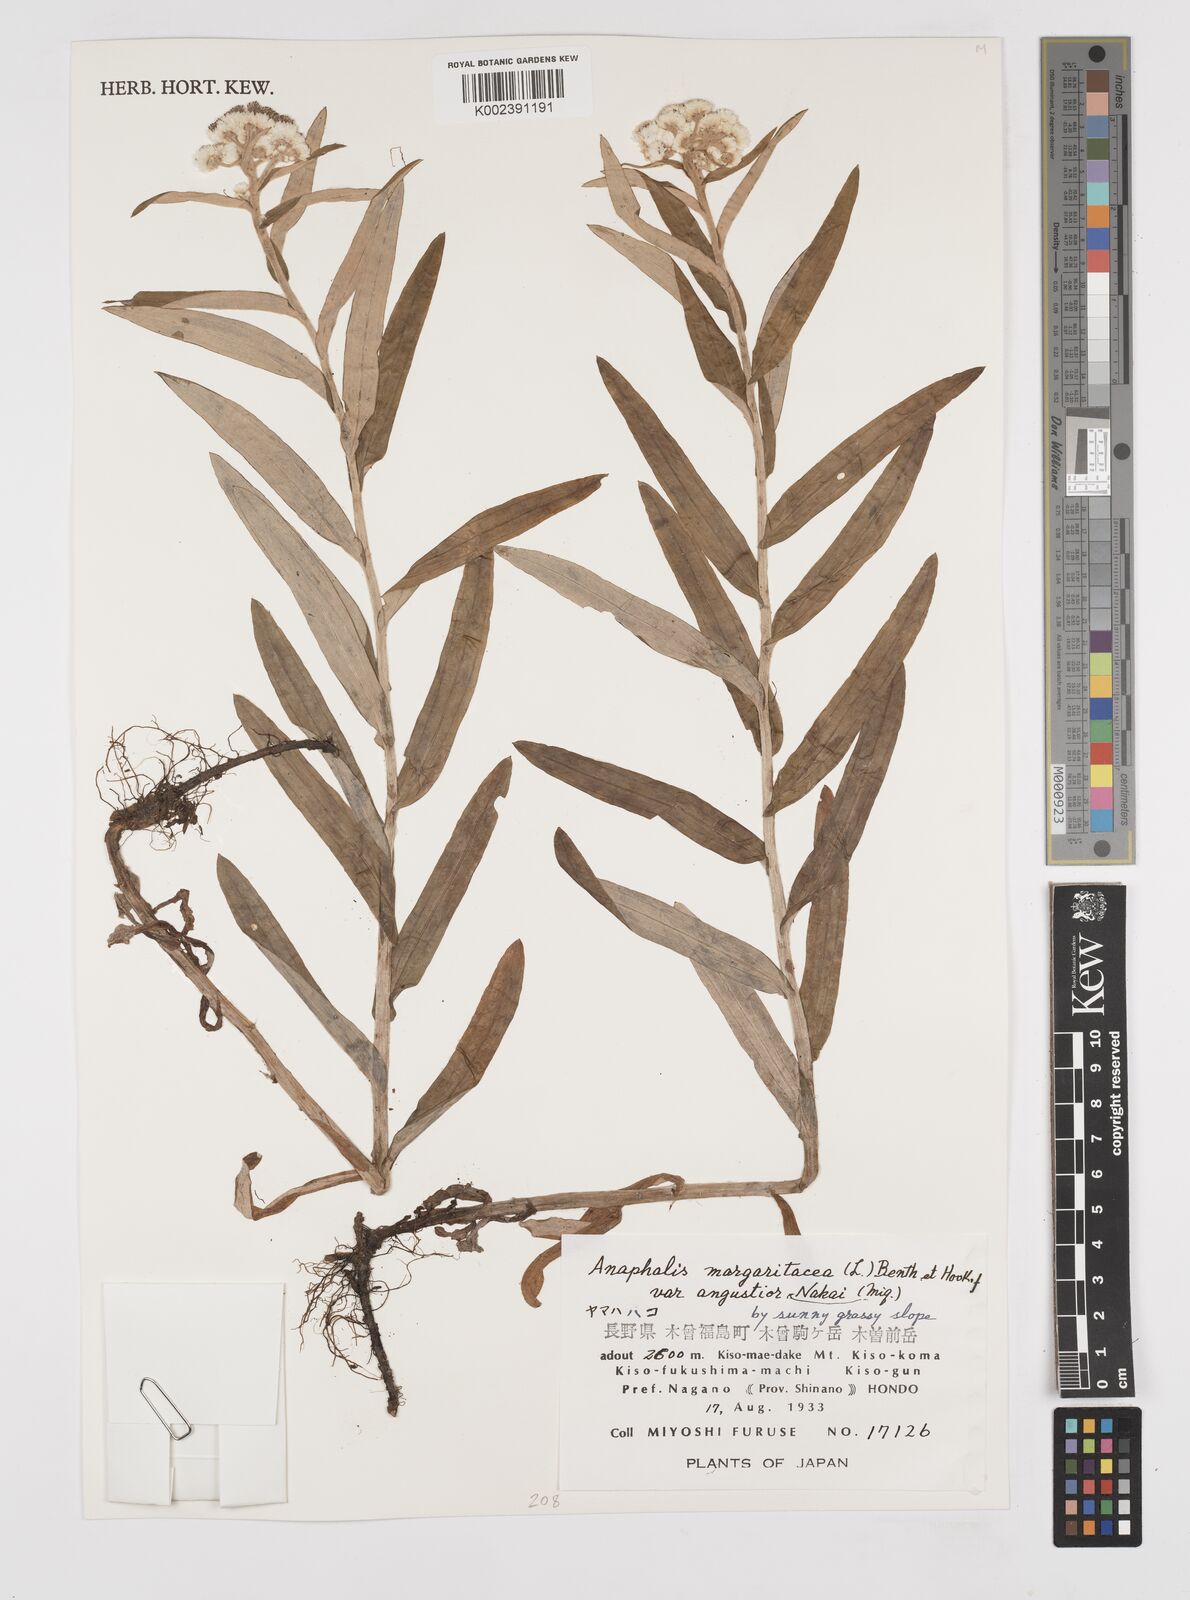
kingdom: Plantae
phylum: Tracheophyta
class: Magnoliopsida
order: Asterales
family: Asteraceae
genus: Anaphalis
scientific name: Anaphalis margaritacea
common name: Pearly everlasting
